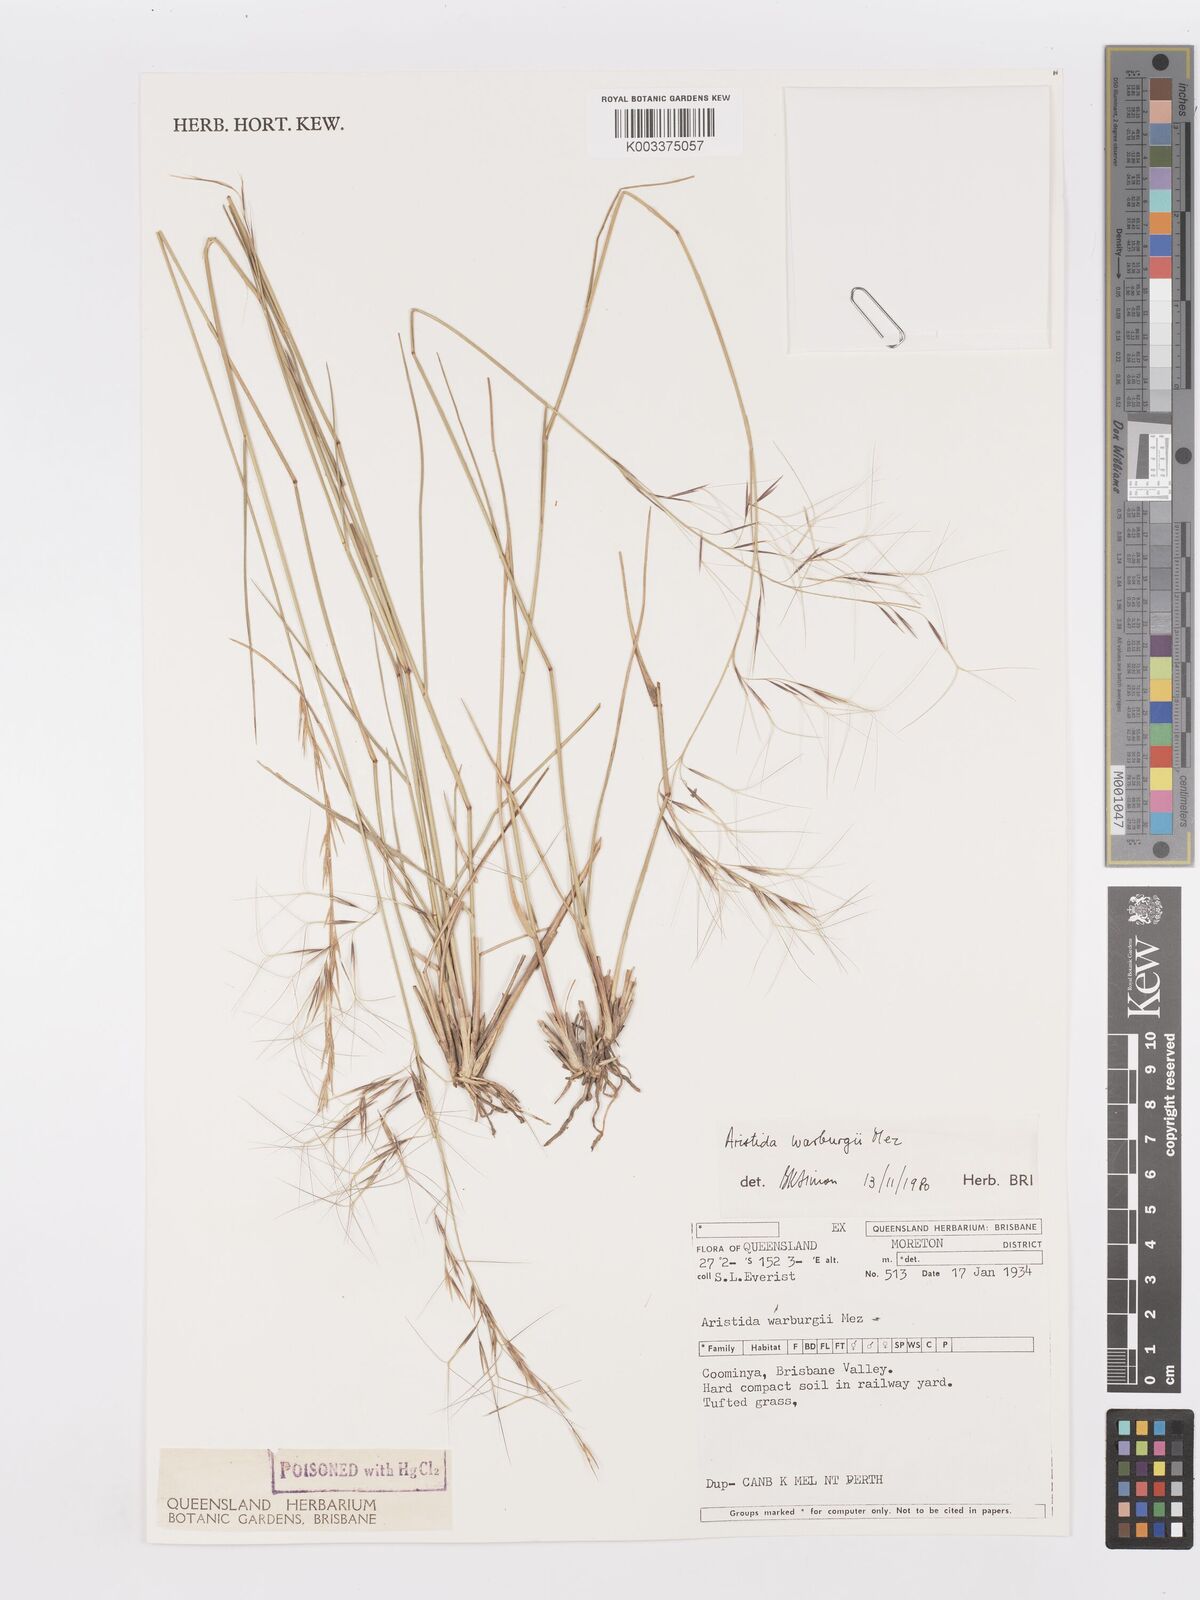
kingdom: Plantae
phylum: Tracheophyta
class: Liliopsida
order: Poales
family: Poaceae
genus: Aristida
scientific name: Aristida warburgii
